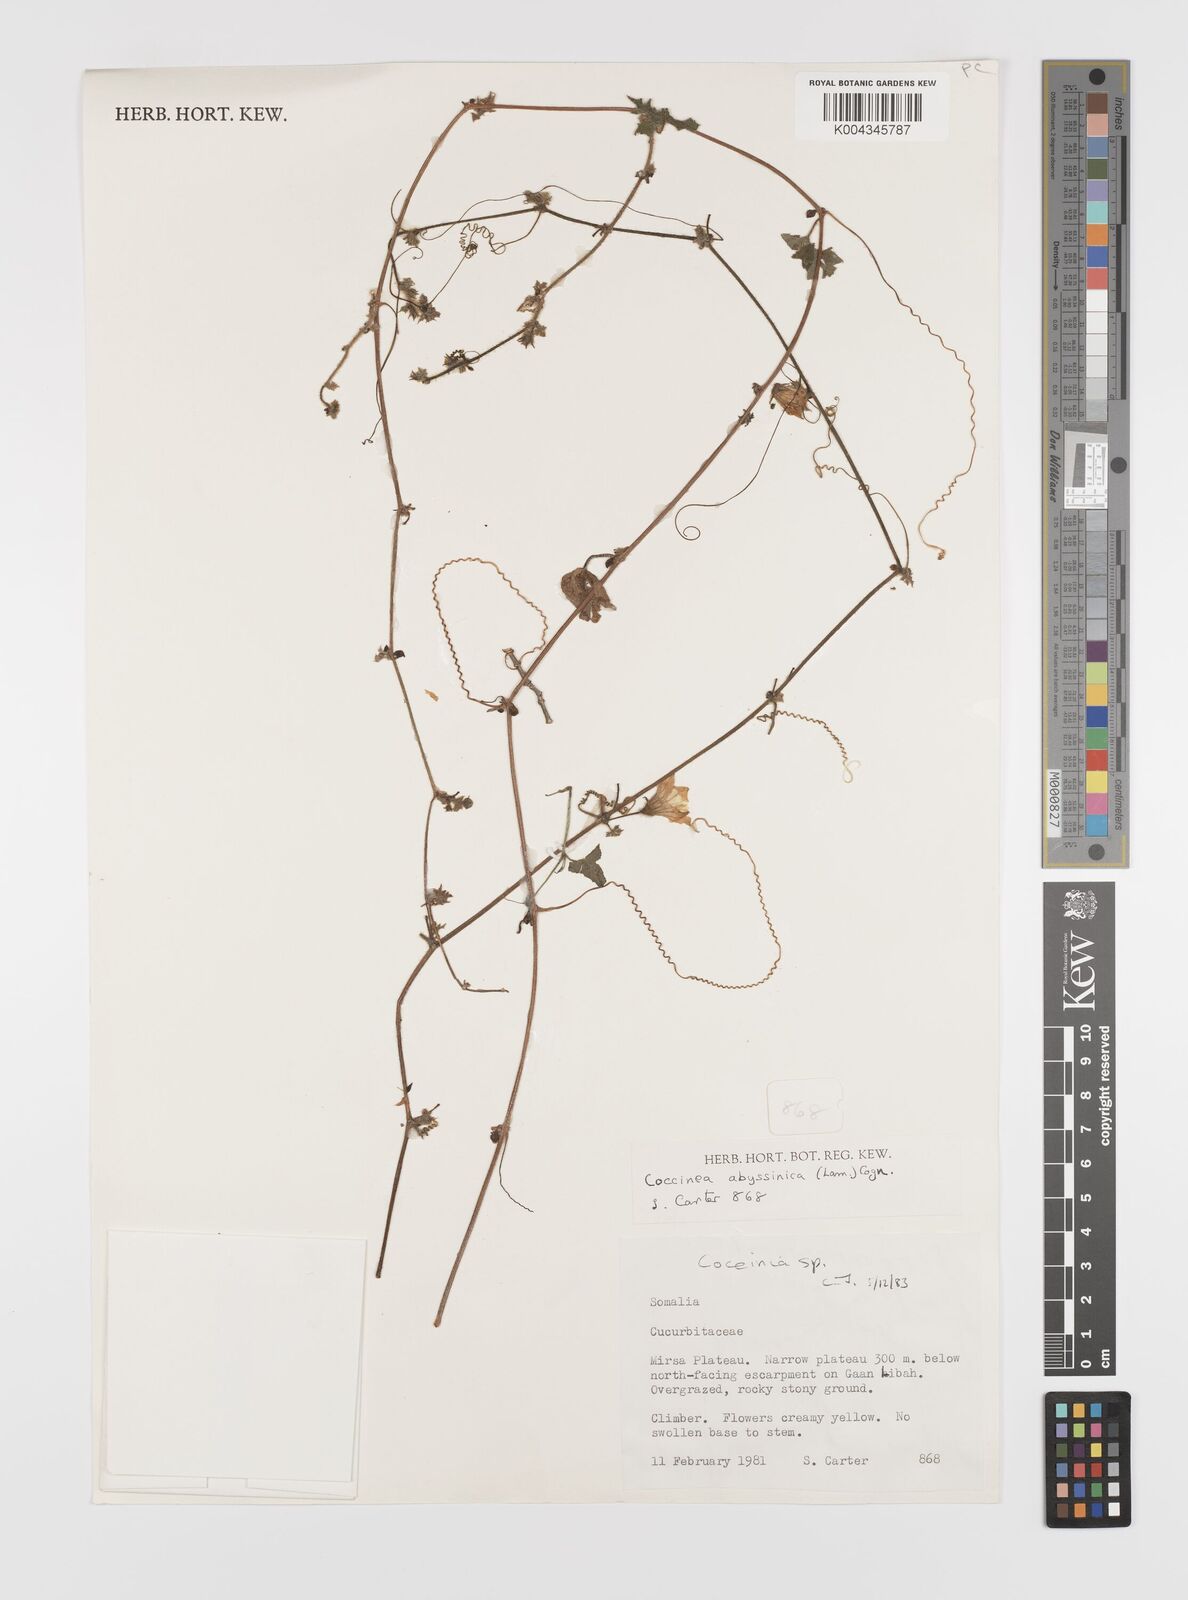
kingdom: Plantae
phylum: Tracheophyta
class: Magnoliopsida
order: Cucurbitales
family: Cucurbitaceae
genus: Coccinia
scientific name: Coccinia
